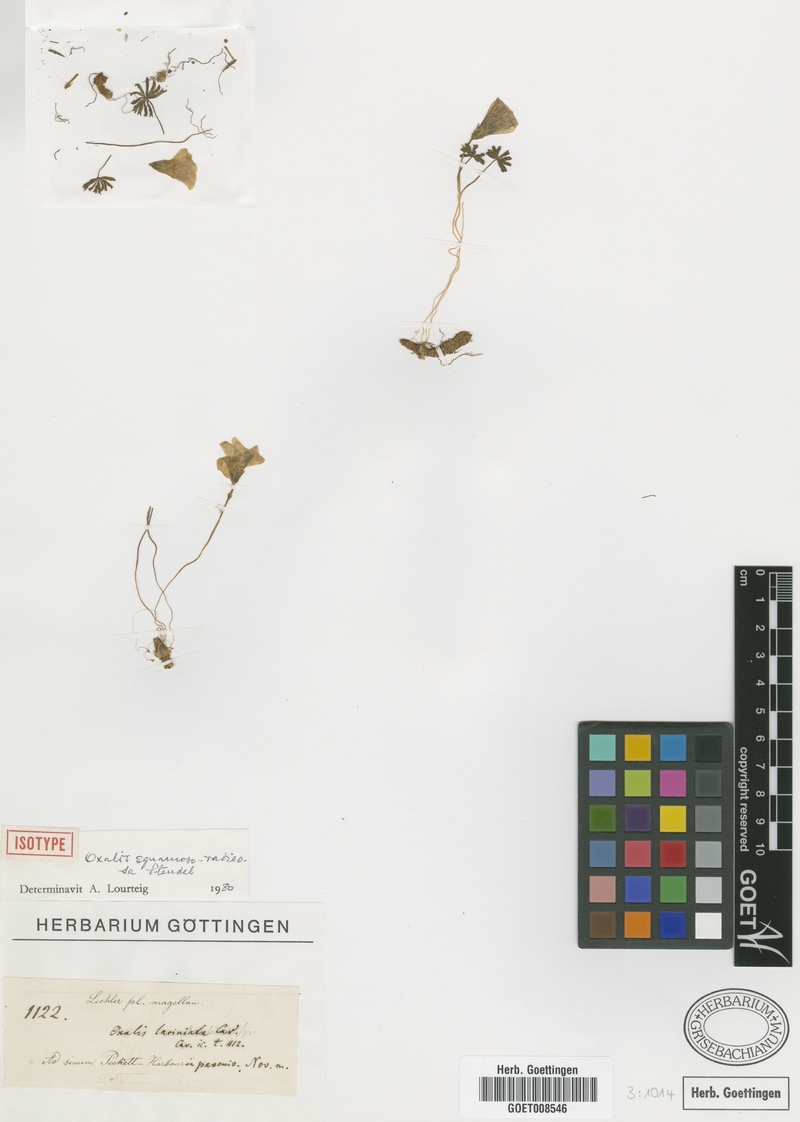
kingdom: Plantae
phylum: Tracheophyta
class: Magnoliopsida
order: Oxalidales
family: Oxalidaceae
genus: Oxalis
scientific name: Oxalis laciniata
